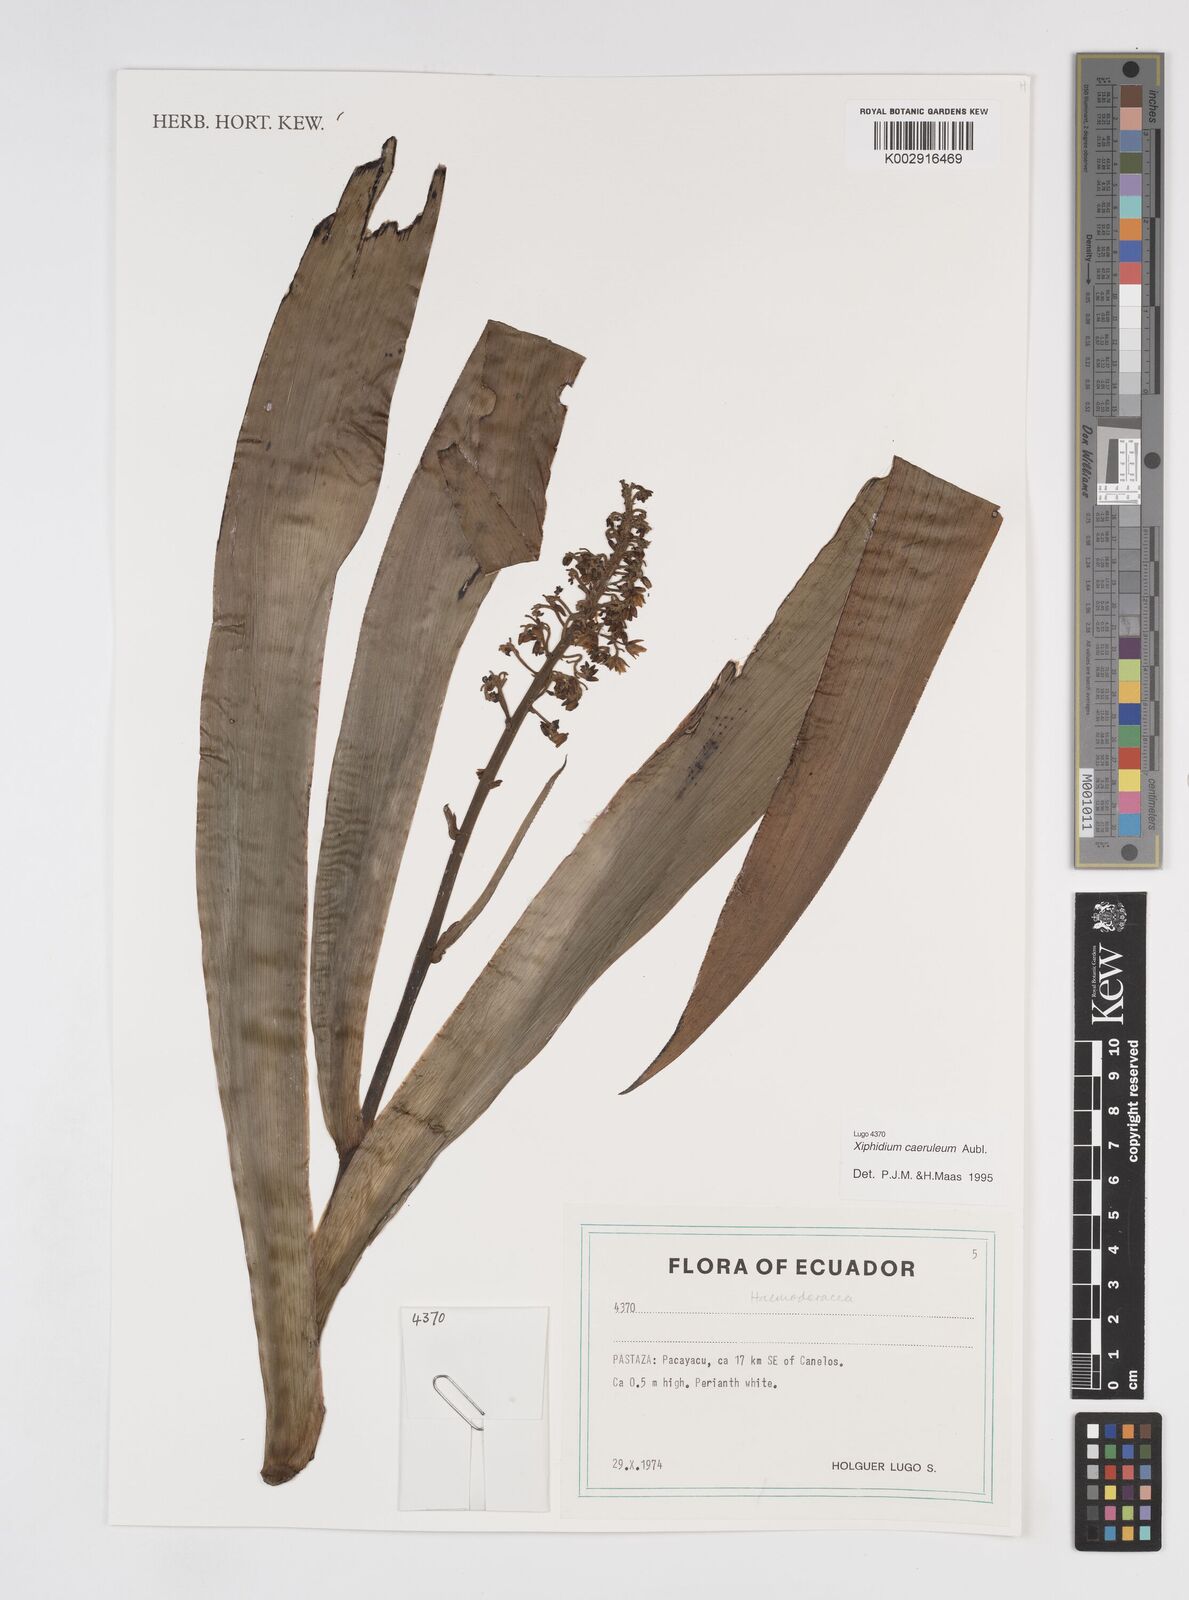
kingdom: Plantae
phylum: Tracheophyta
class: Liliopsida
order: Commelinales
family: Haemodoraceae
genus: Xiphidium
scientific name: Xiphidium caeruleum
